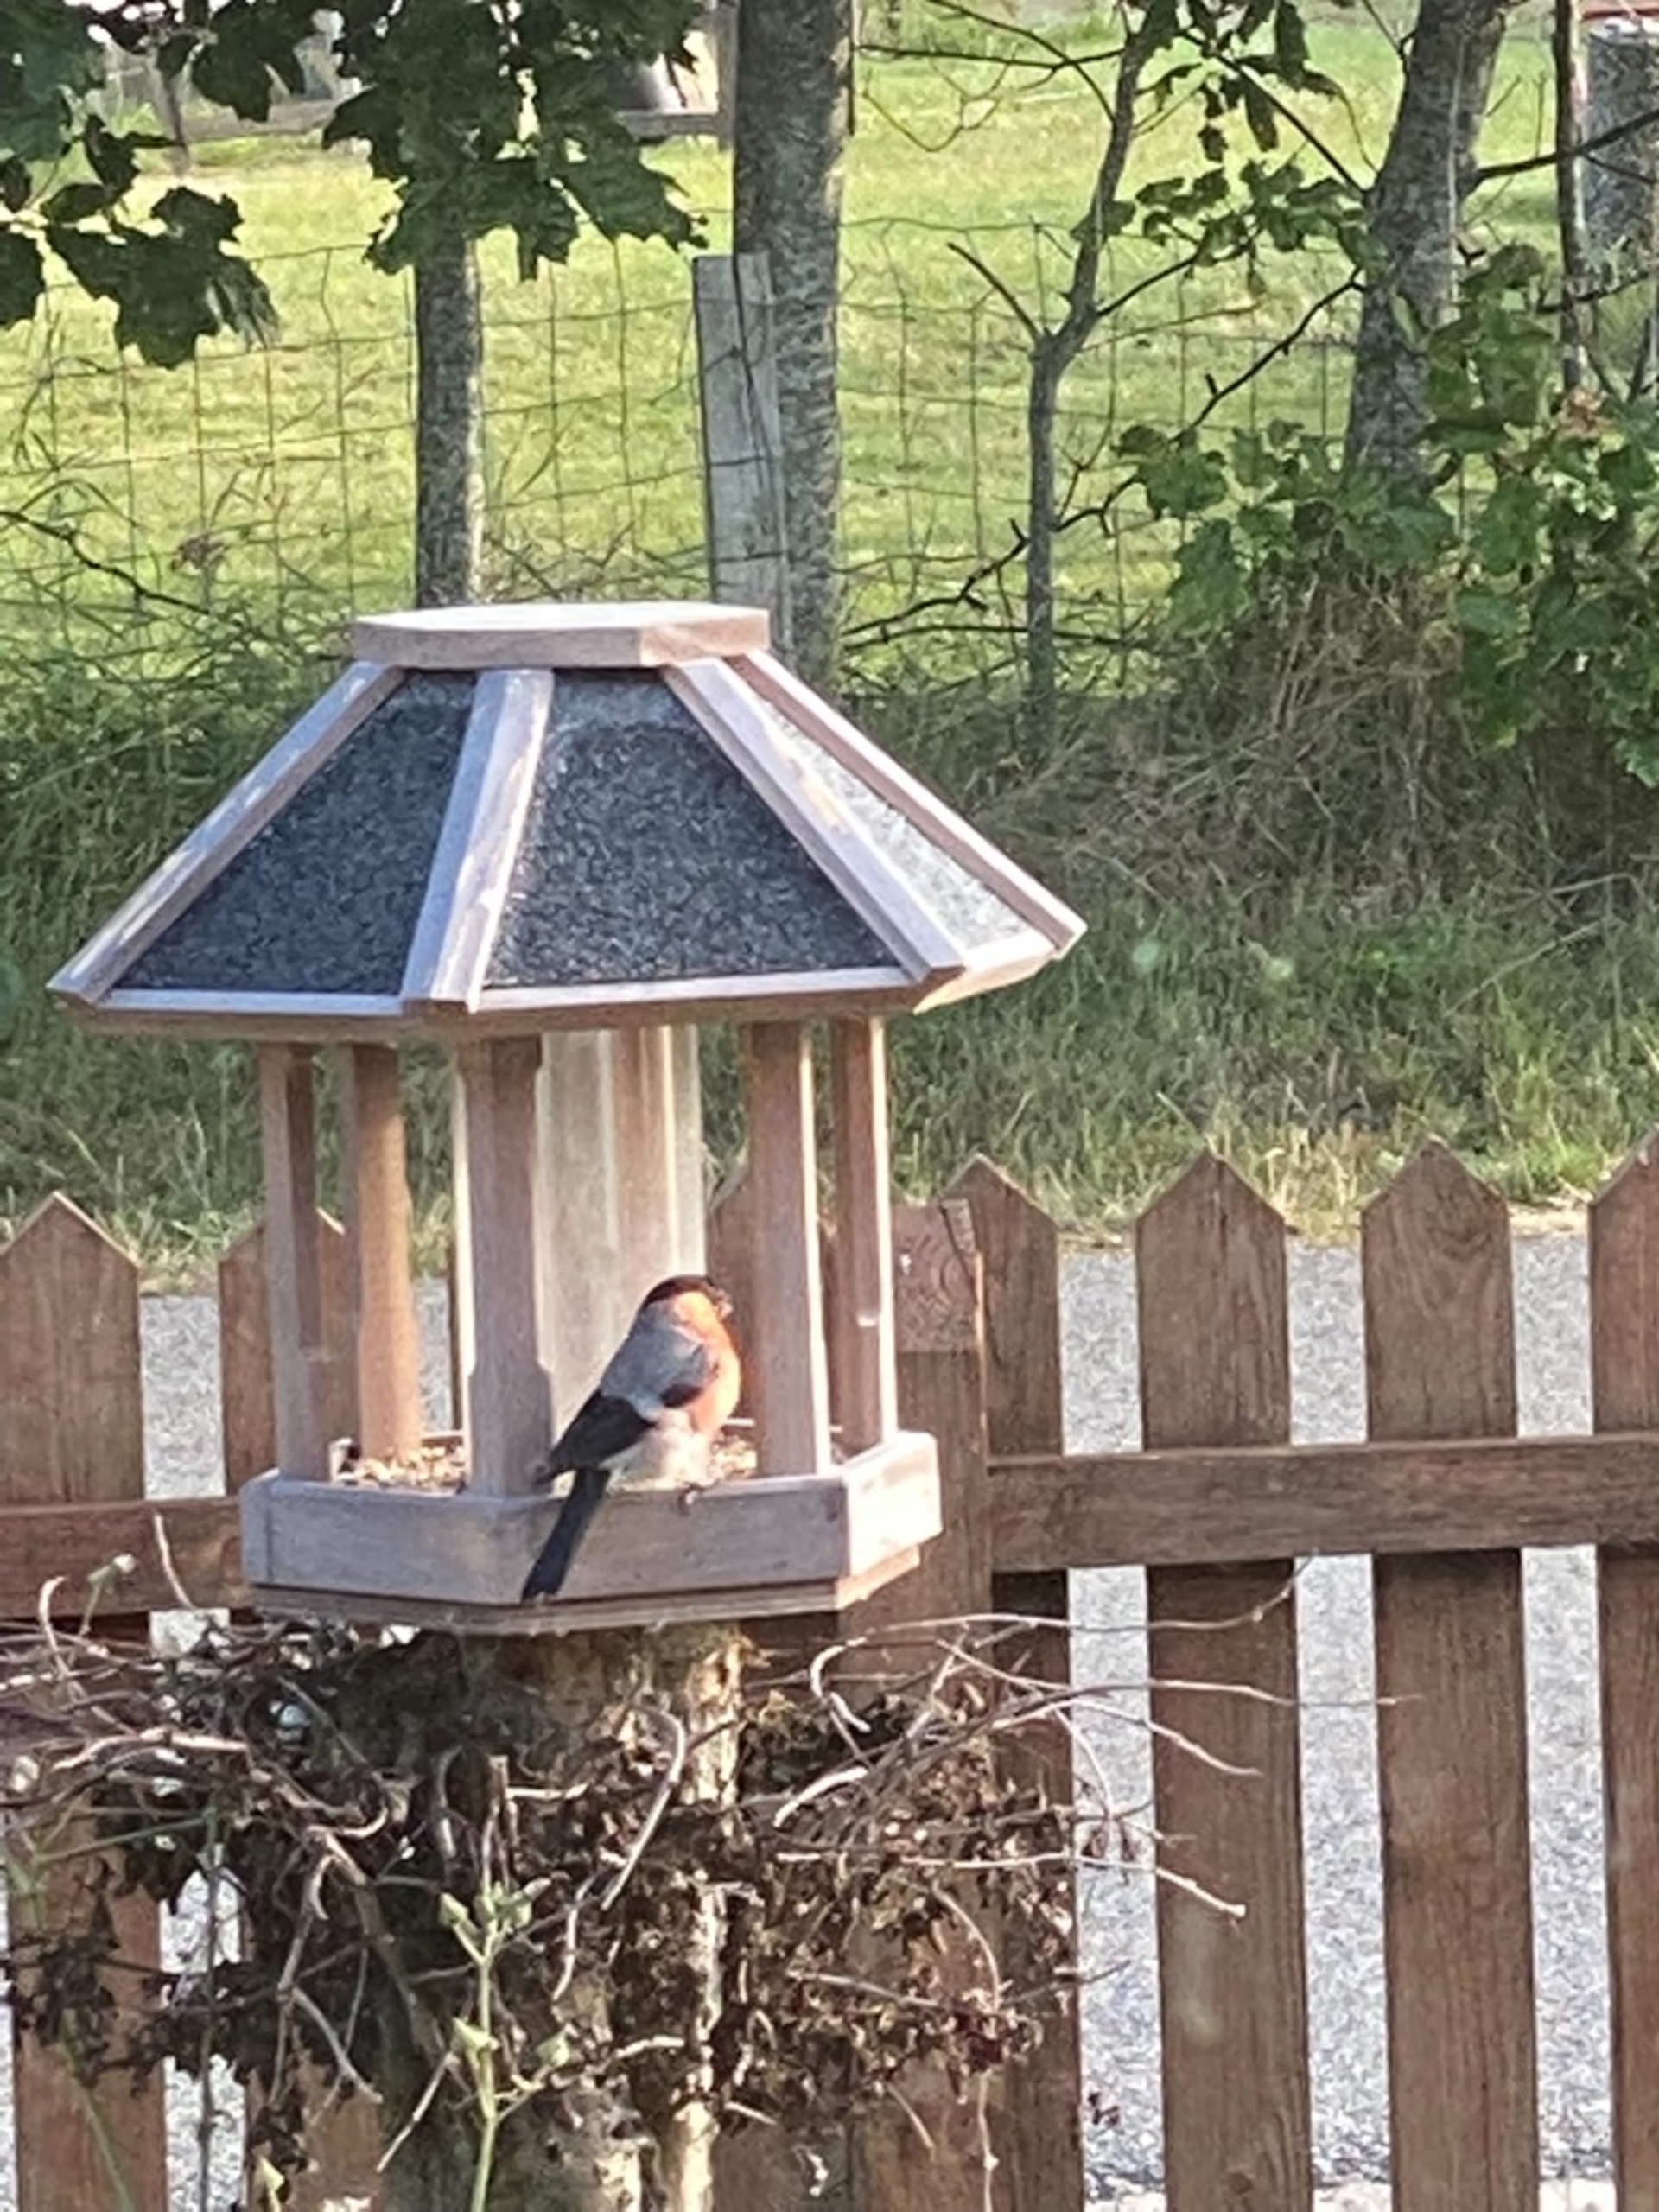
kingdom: Animalia
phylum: Chordata
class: Aves
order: Passeriformes
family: Fringillidae
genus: Pyrrhula
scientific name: Pyrrhula pyrrhula
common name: Dompap
